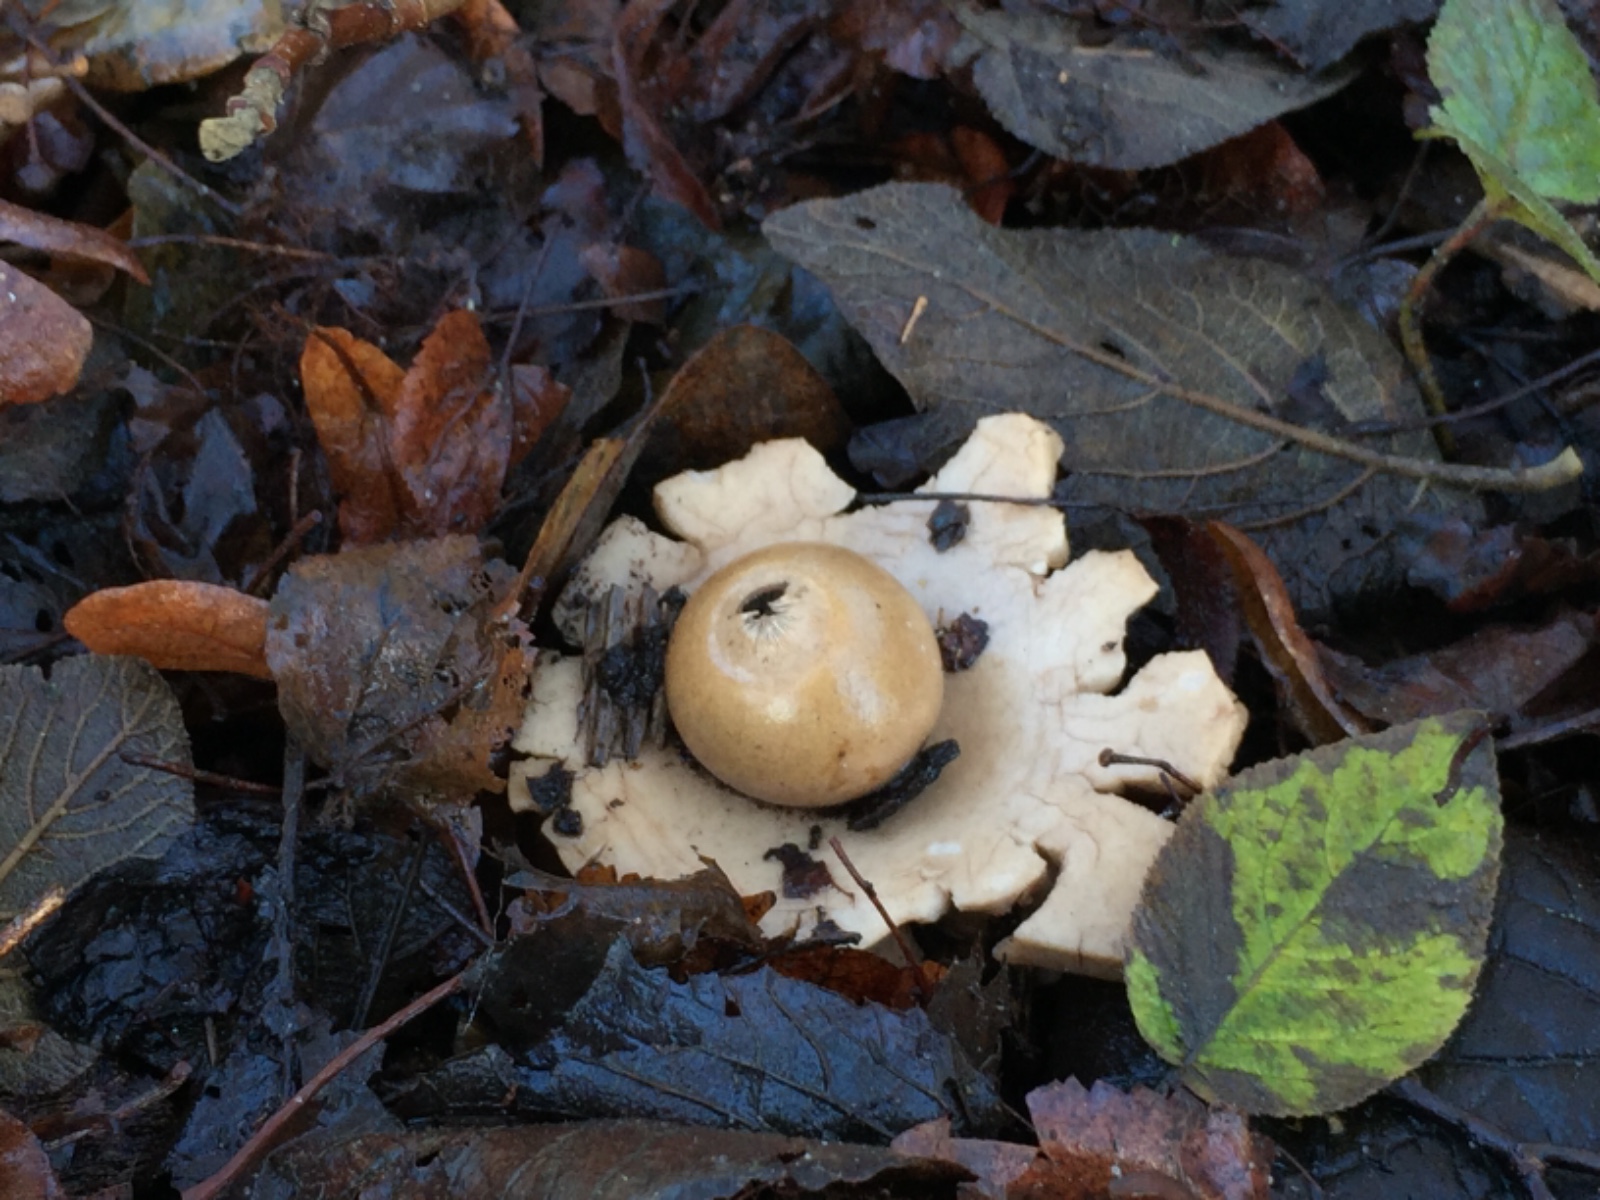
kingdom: Fungi
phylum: Basidiomycota
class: Agaricomycetes
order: Geastrales
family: Geastraceae
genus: Geastrum
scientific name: Geastrum michelianum
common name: kødet stjernebold
